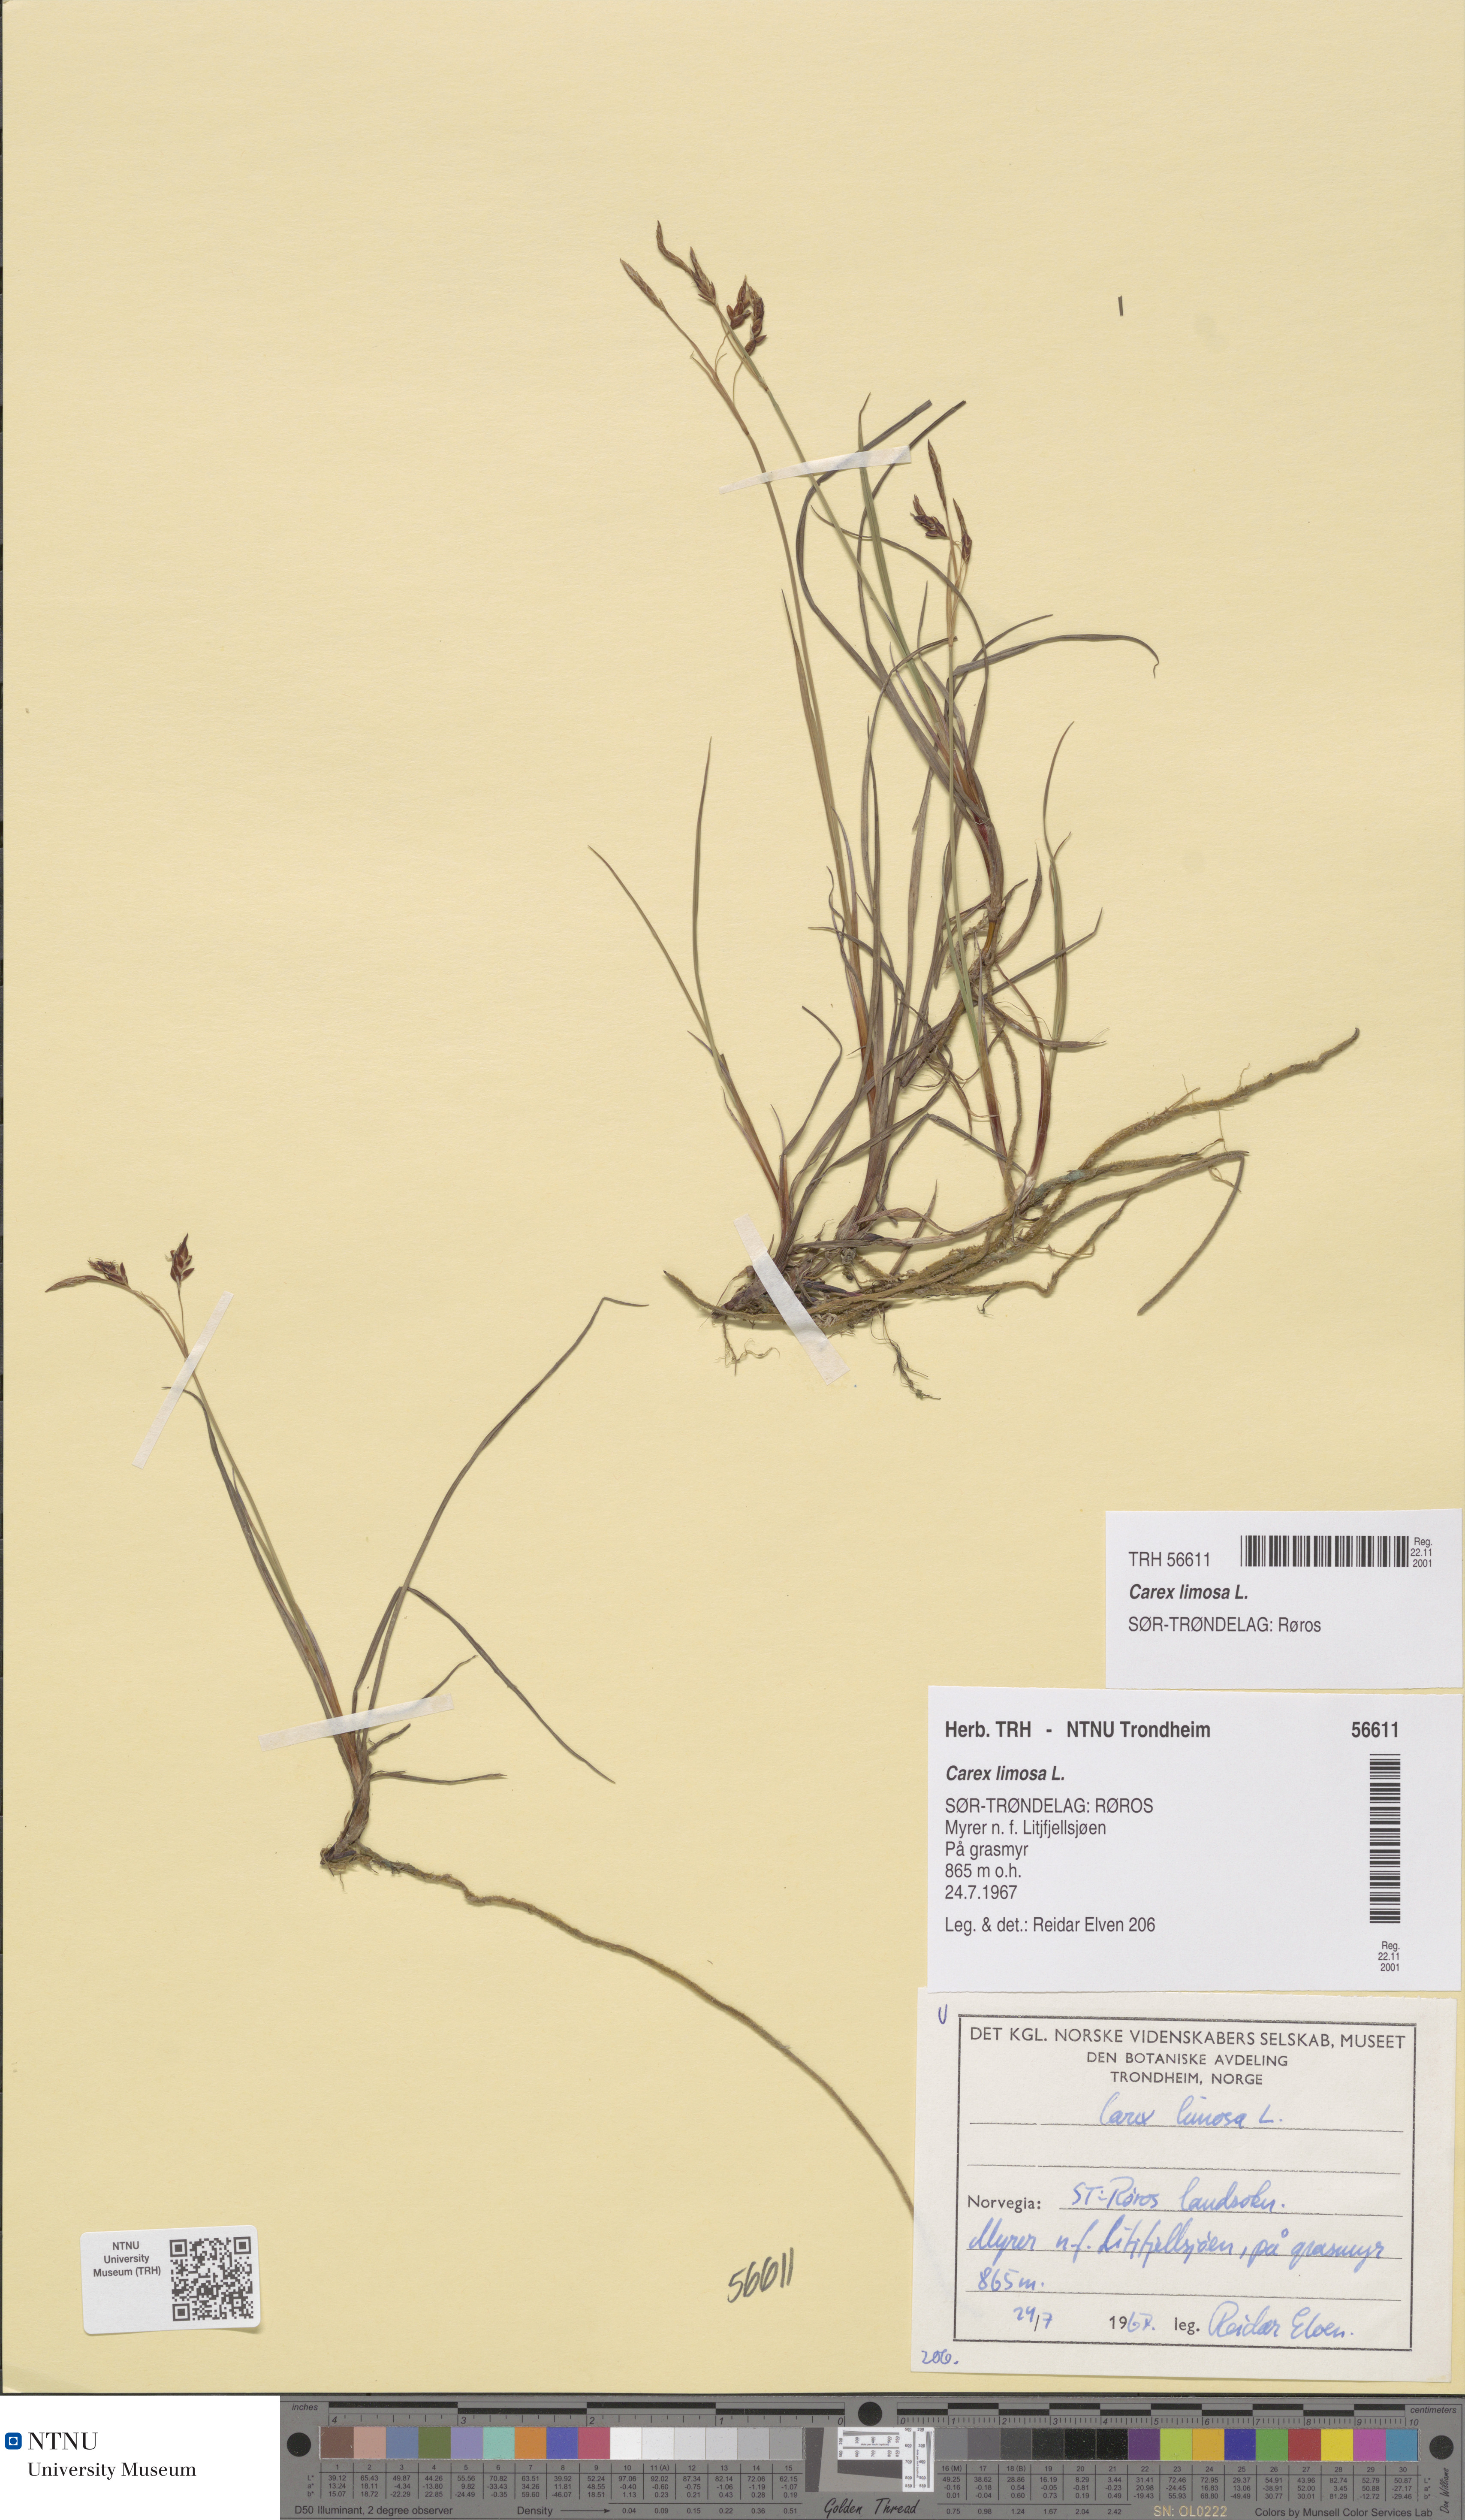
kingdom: Plantae
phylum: Tracheophyta
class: Liliopsida
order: Poales
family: Cyperaceae
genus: Carex
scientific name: Carex limosa
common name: Bog sedge
